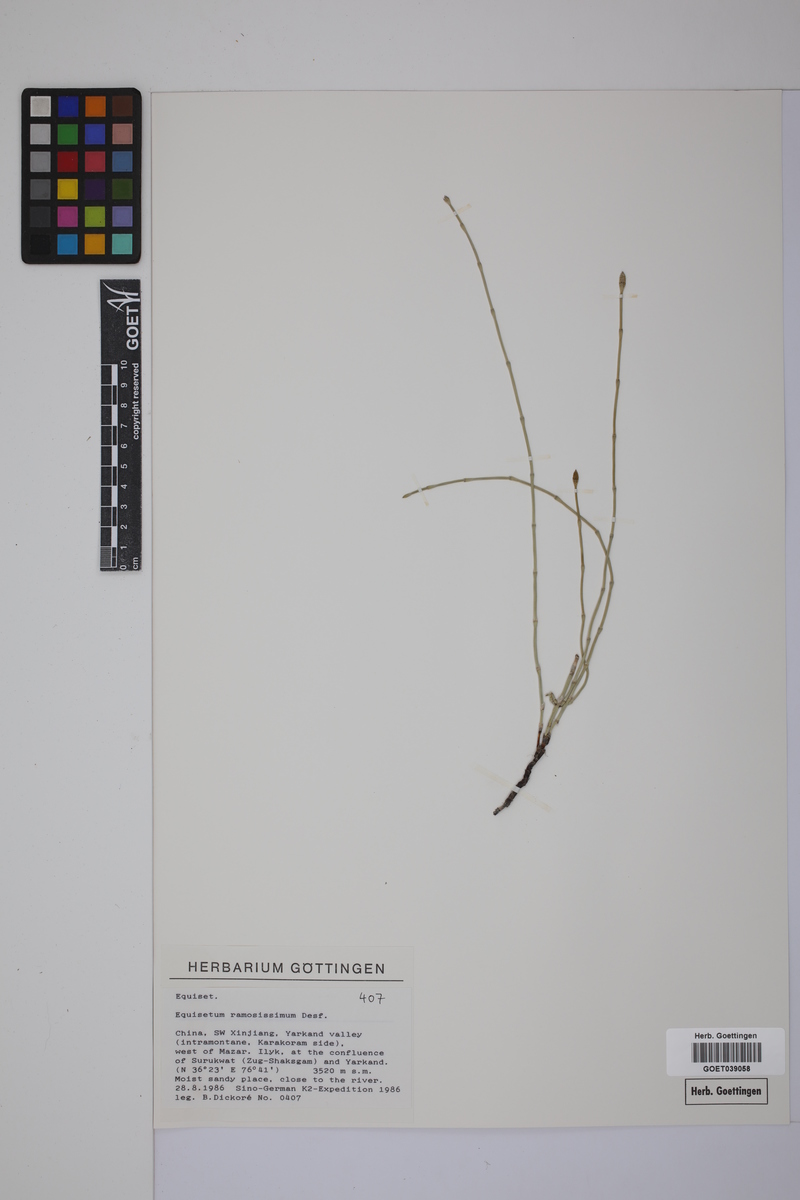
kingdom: Plantae
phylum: Tracheophyta
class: Polypodiopsida
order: Equisetales
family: Equisetaceae
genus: Equisetum
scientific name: Equisetum giganteum
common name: Giant horsetail
